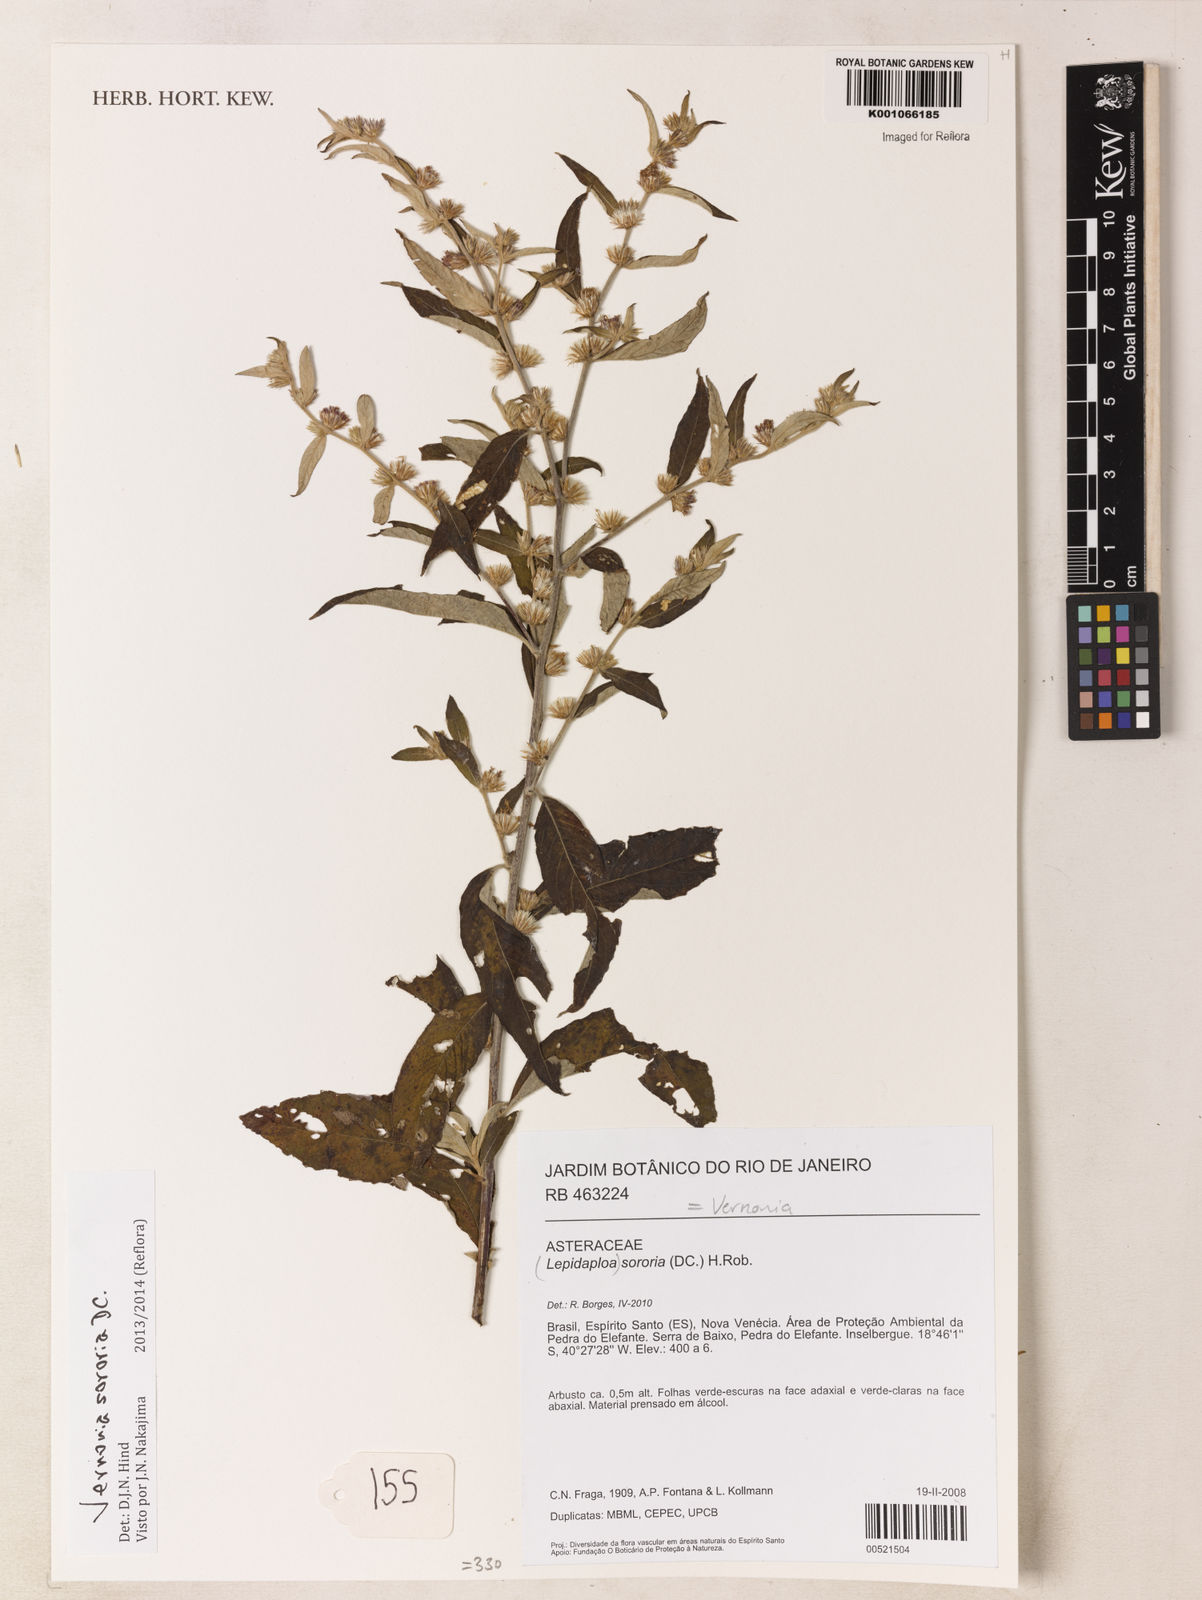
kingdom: Plantae
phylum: Tracheophyta
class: Magnoliopsida
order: Asterales
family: Asteraceae
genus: Lepidaploa
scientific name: Lepidaploa sororia
